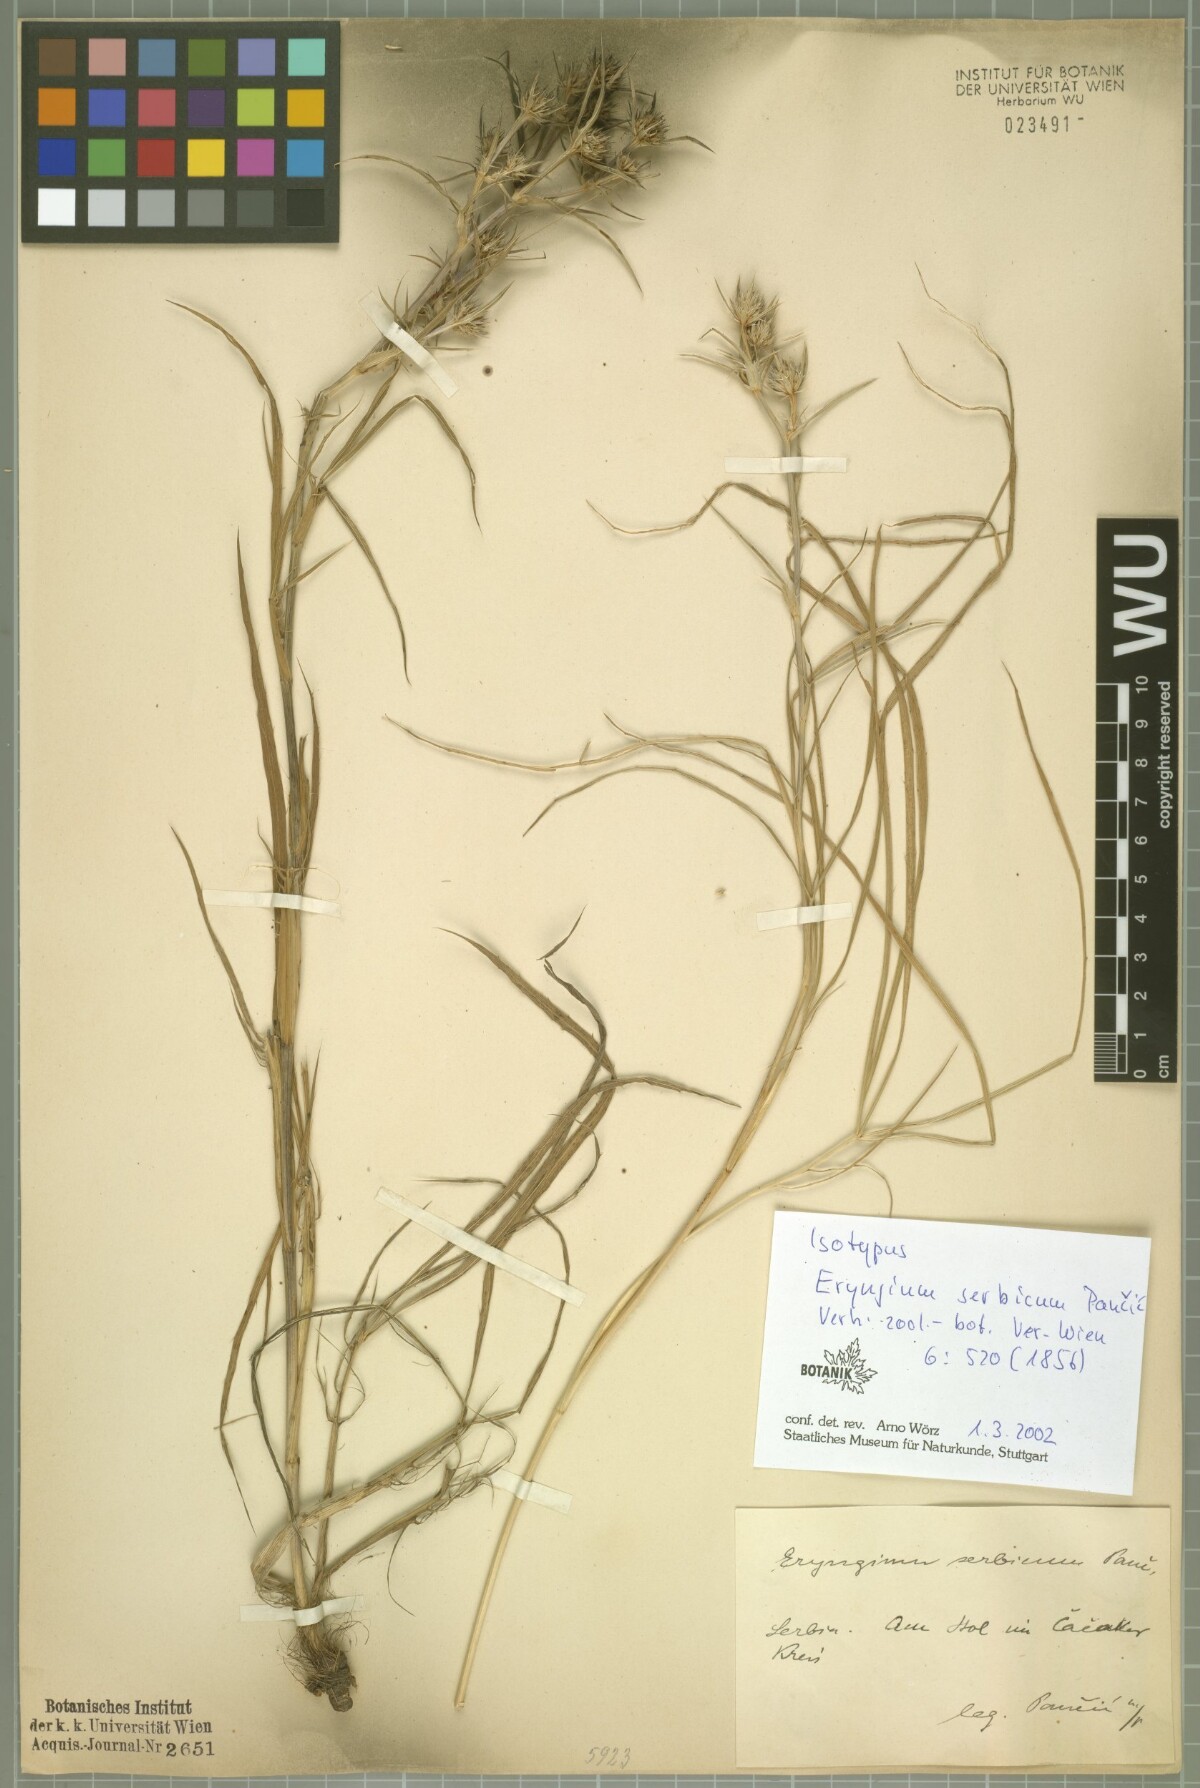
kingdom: Plantae
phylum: Tracheophyta
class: Magnoliopsida
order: Apiales
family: Apiaceae
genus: Eryngium
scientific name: Eryngium serbicum
